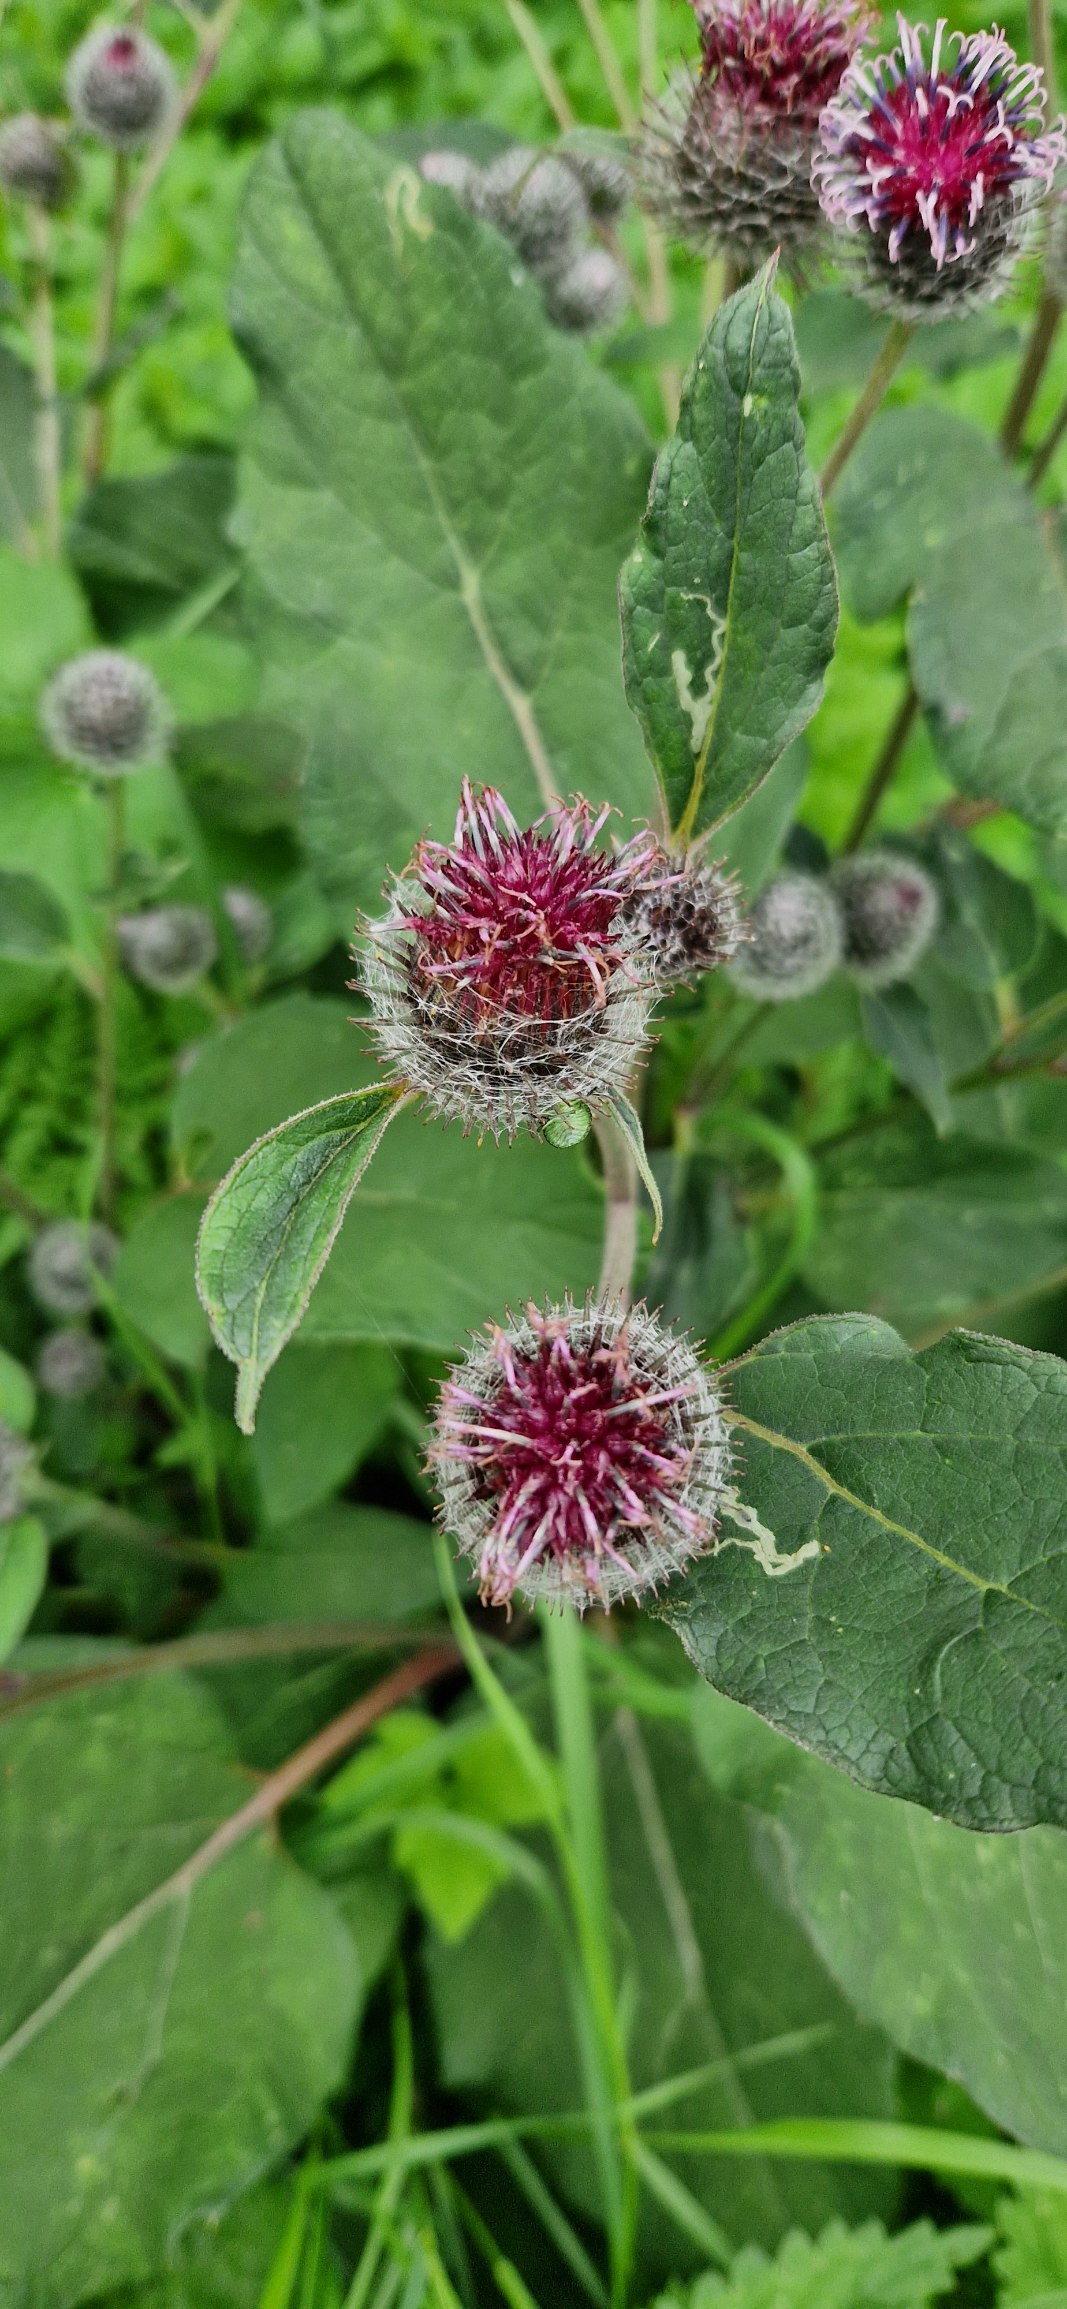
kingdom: Plantae
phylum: Tracheophyta
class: Magnoliopsida
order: Asterales
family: Asteraceae
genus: Arctium
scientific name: Arctium tomentosum
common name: Filtet burre
